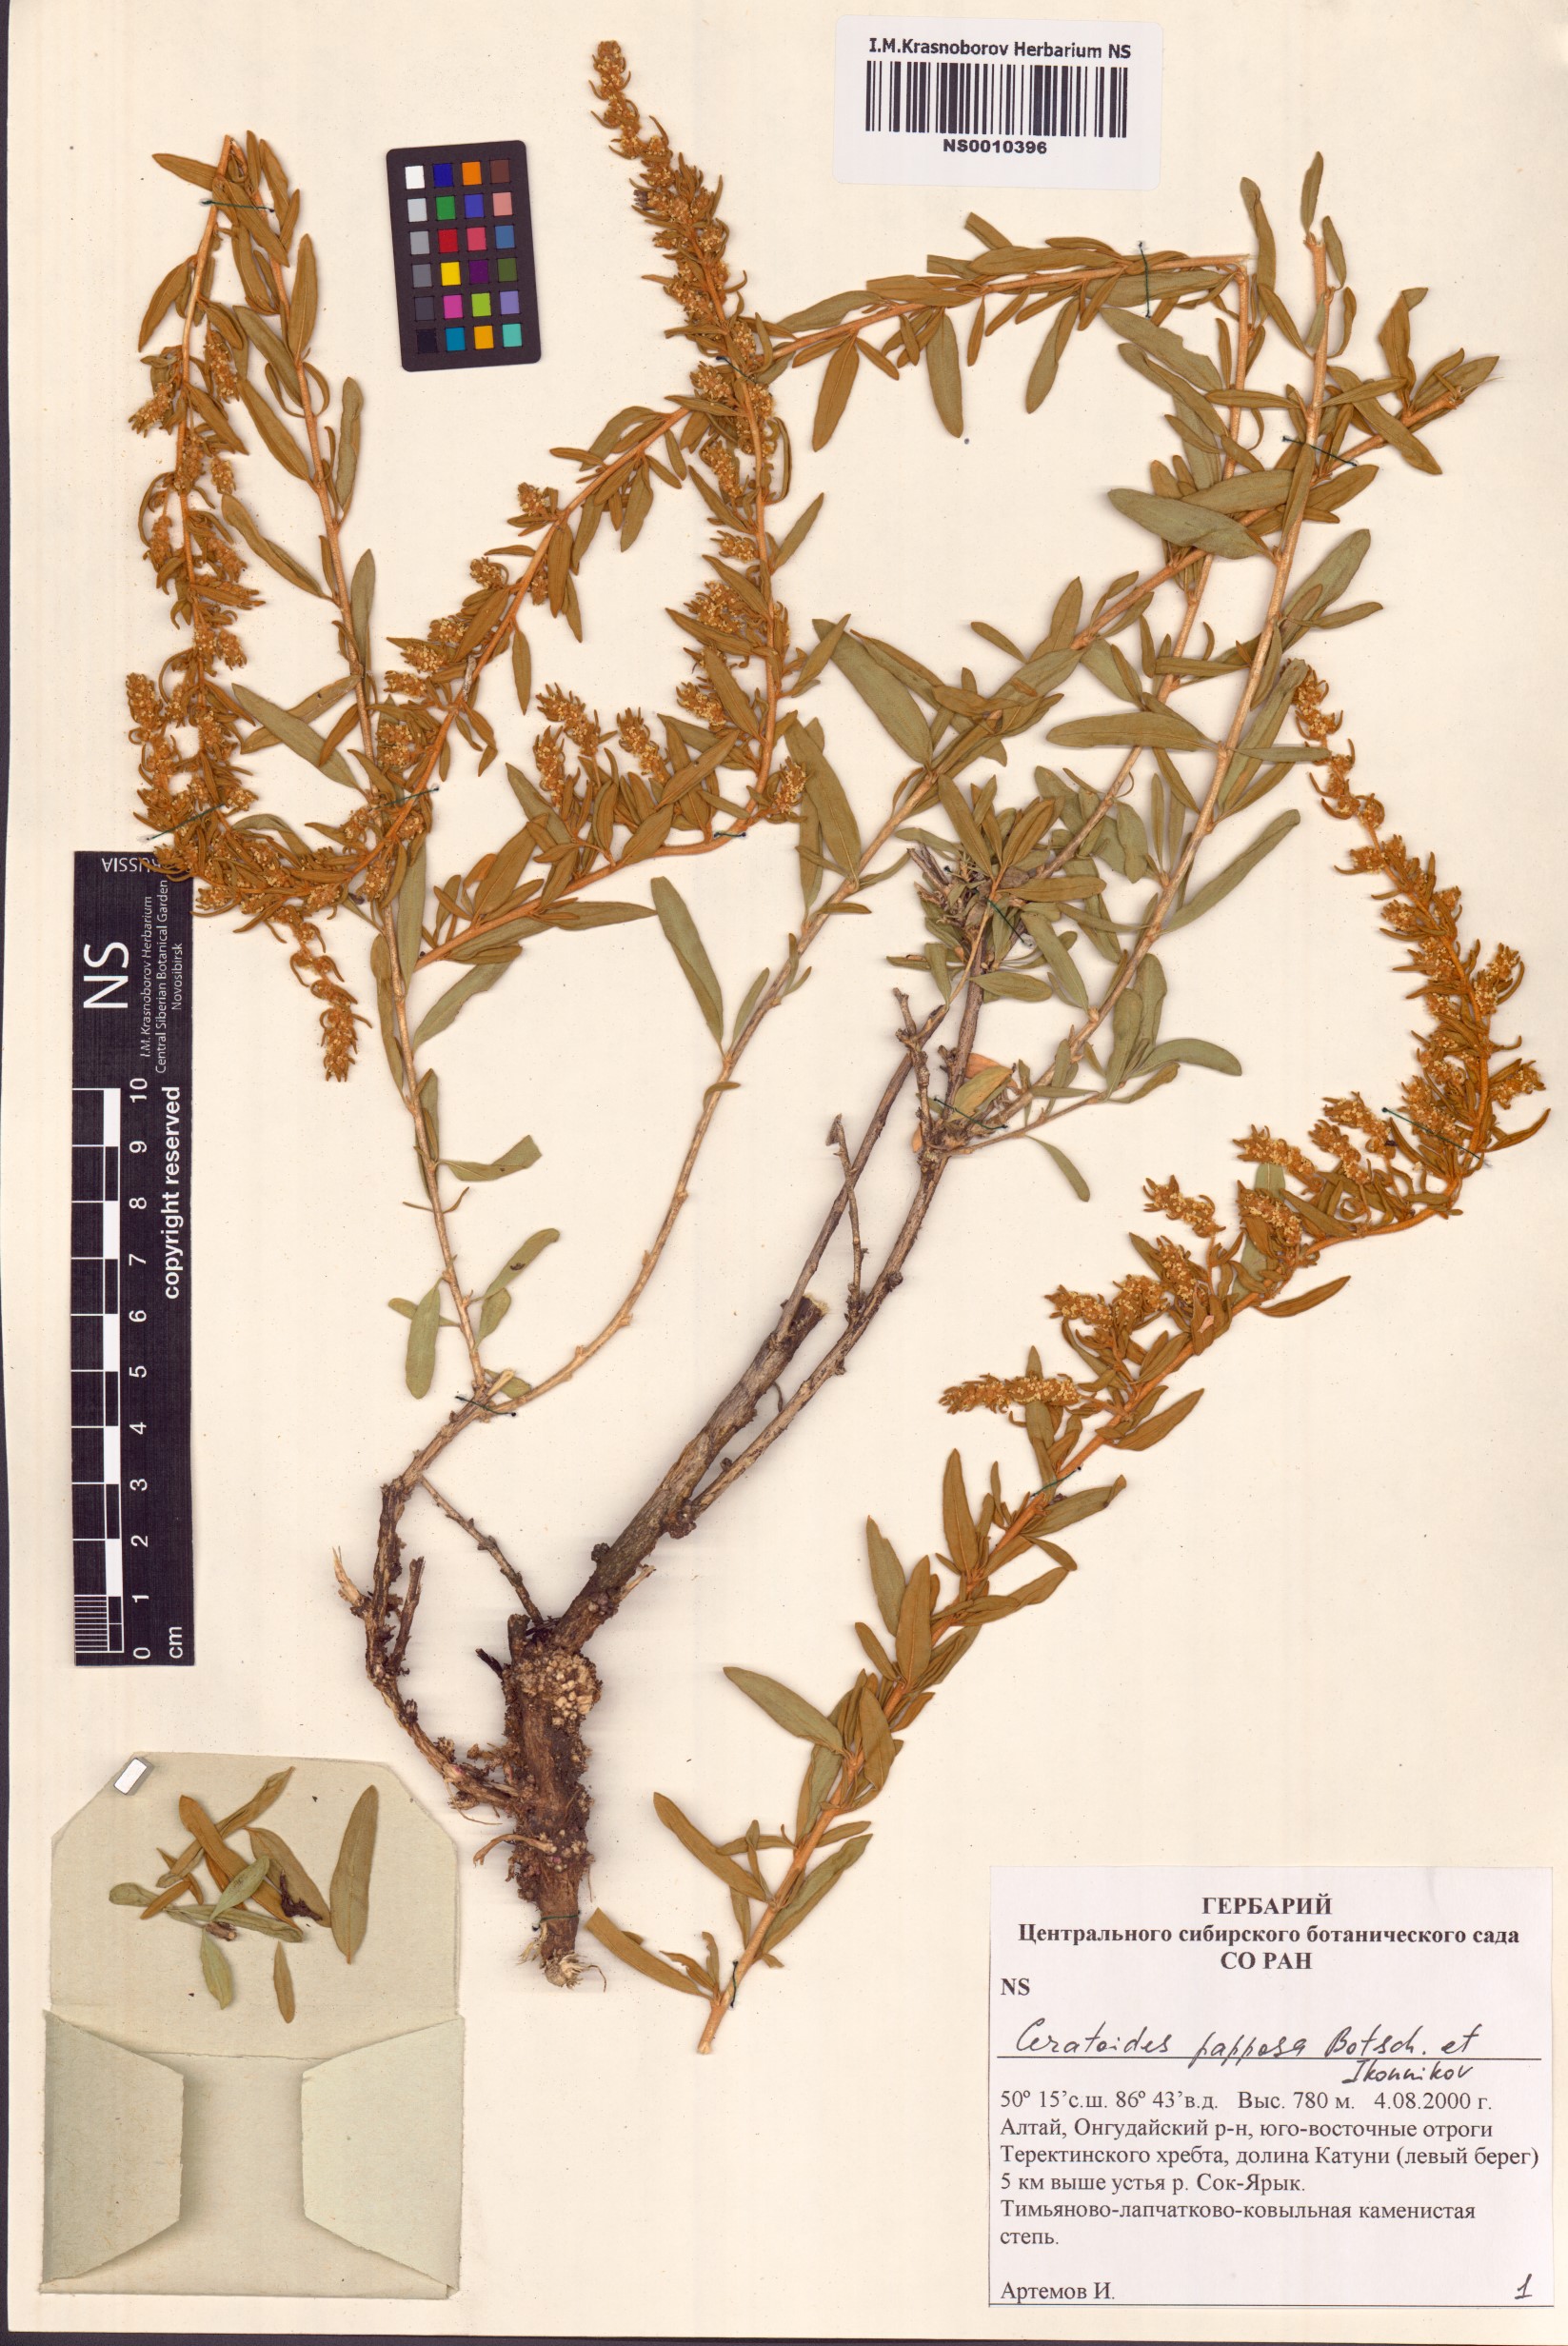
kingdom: Plantae
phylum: Tracheophyta
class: Magnoliopsida
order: Caryophyllales
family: Amaranthaceae
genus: Krascheninnikovia
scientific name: Krascheninnikovia ceratoides
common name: Pamirian winterfat
